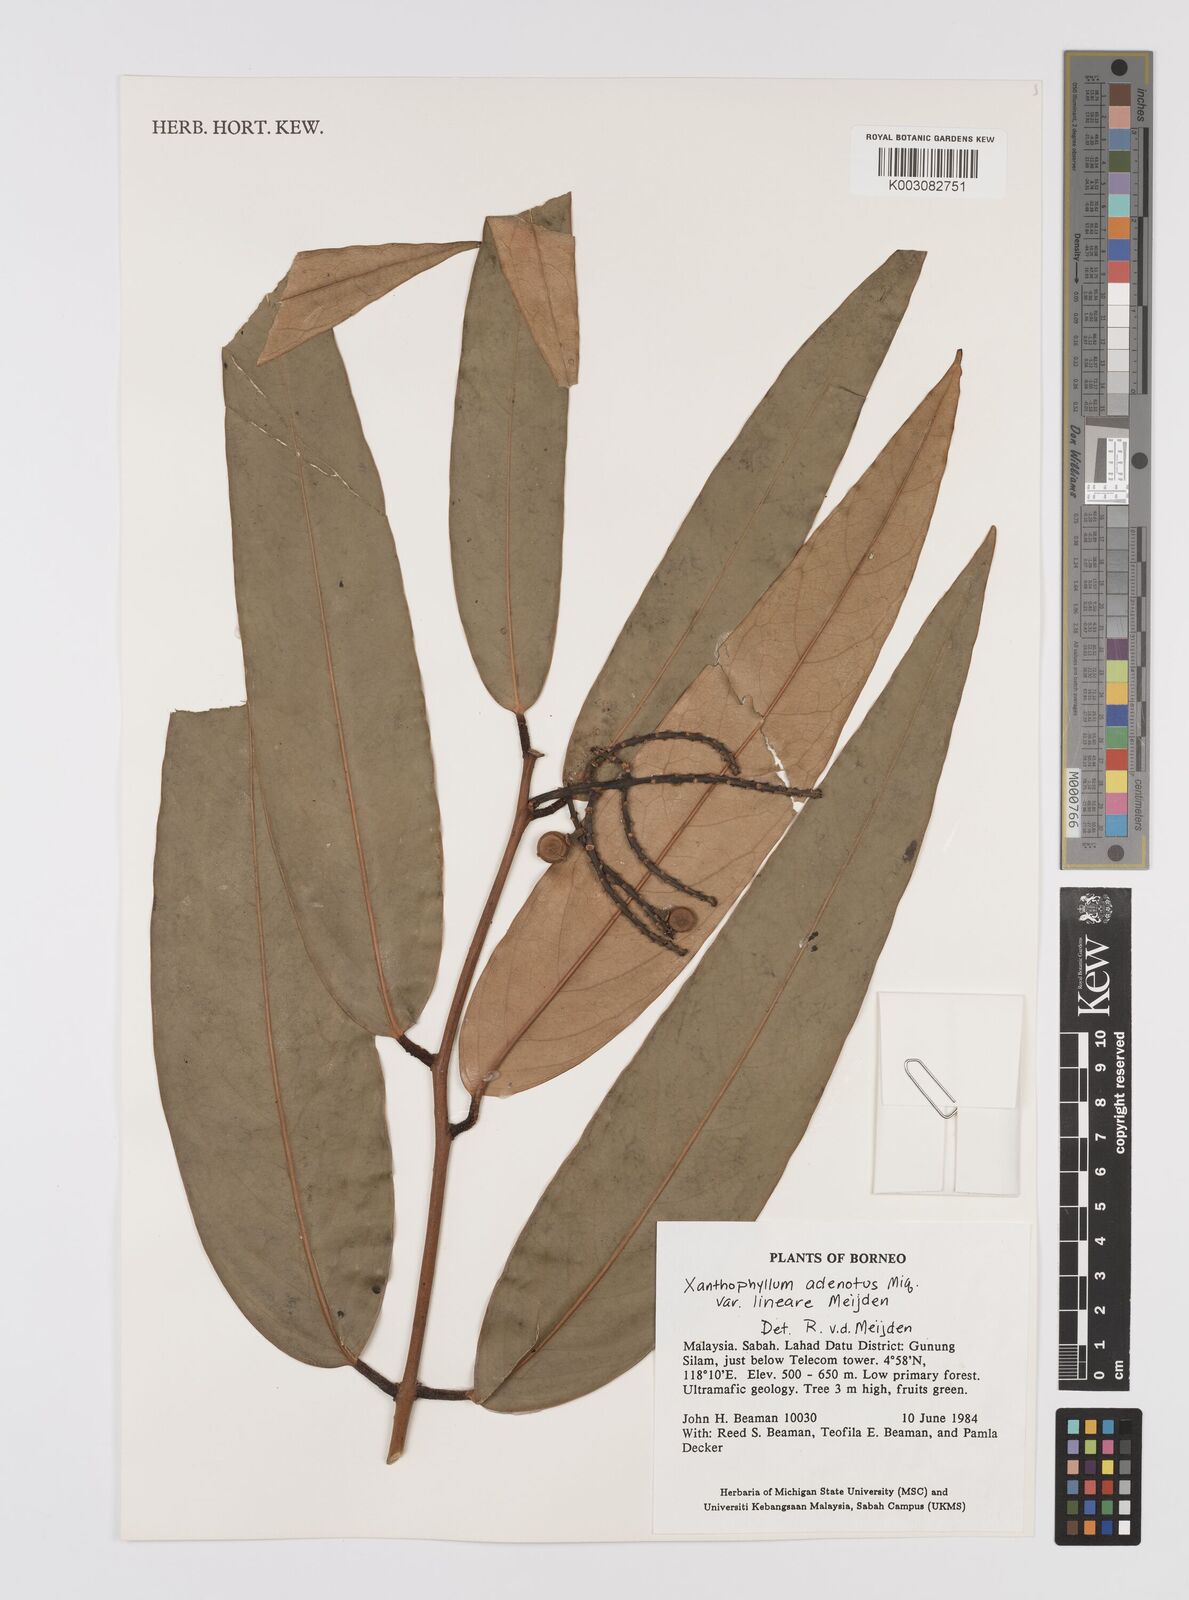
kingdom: Plantae
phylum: Tracheophyta
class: Magnoliopsida
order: Fabales
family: Polygalaceae
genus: Xanthophyllum
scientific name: Xanthophyllum lineare
